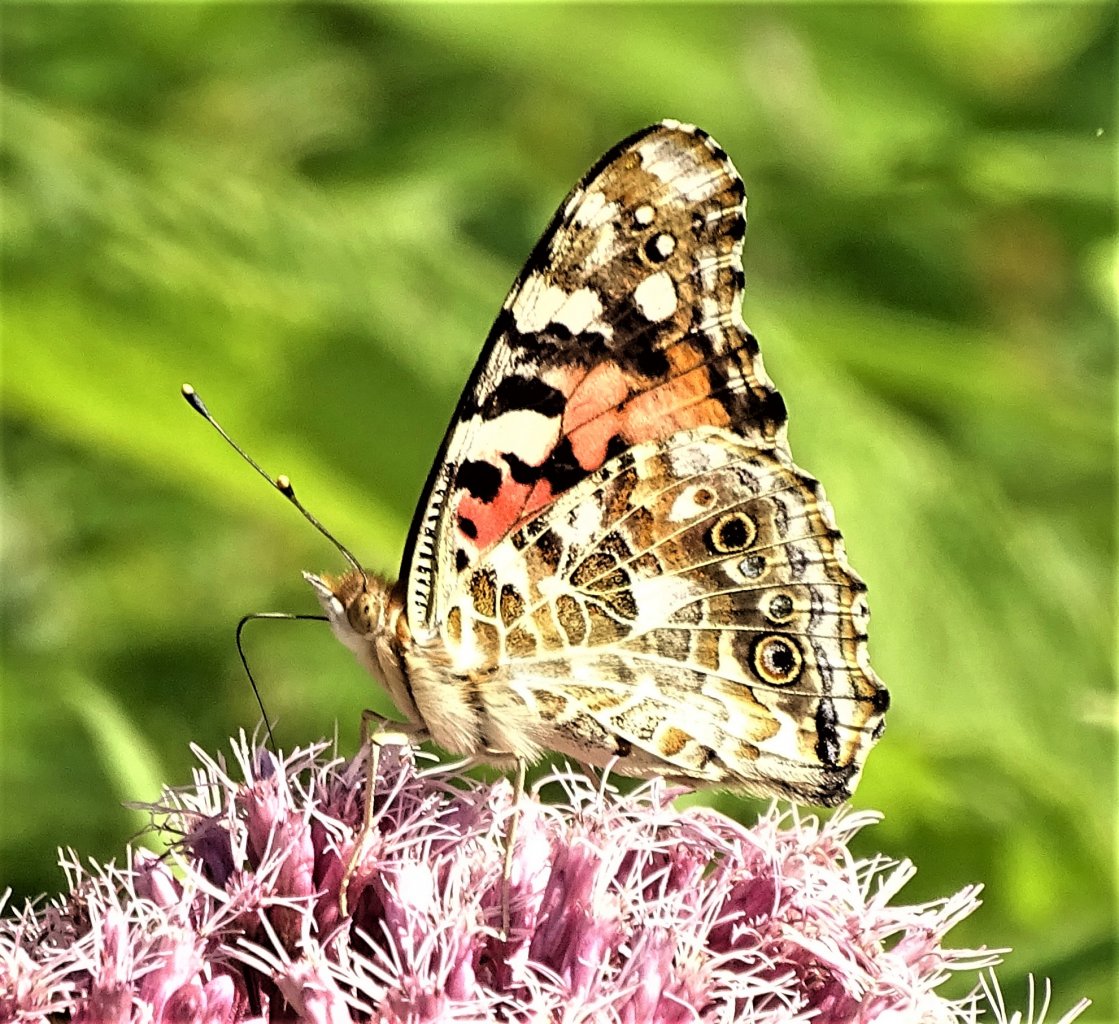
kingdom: Animalia
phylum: Arthropoda
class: Insecta
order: Lepidoptera
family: Nymphalidae
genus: Vanessa
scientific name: Vanessa cardui
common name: Painted Lady
